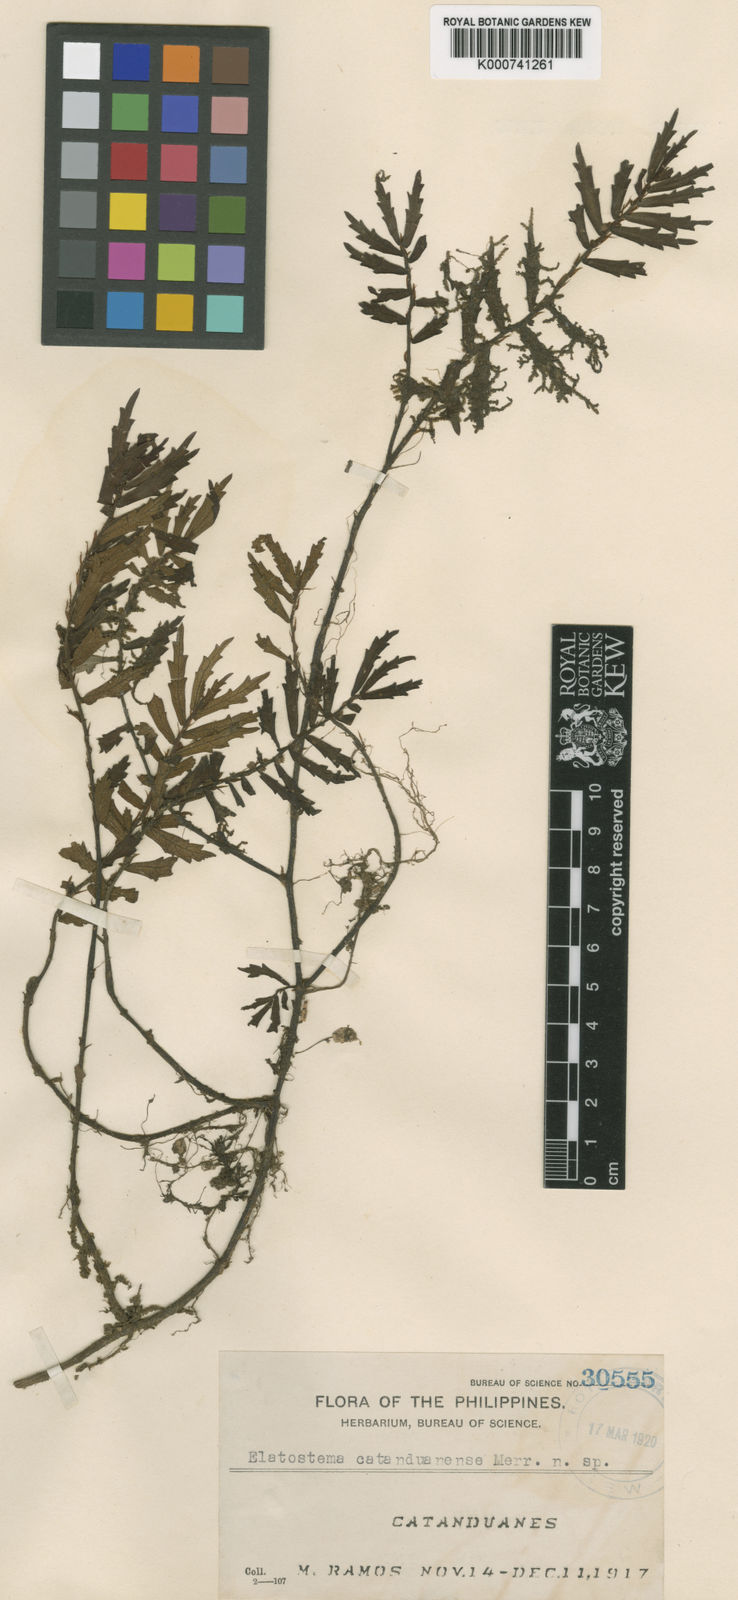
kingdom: Plantae
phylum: Tracheophyta
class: Magnoliopsida
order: Rosales
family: Urticaceae
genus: Elatostema
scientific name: Elatostema catanduanense
